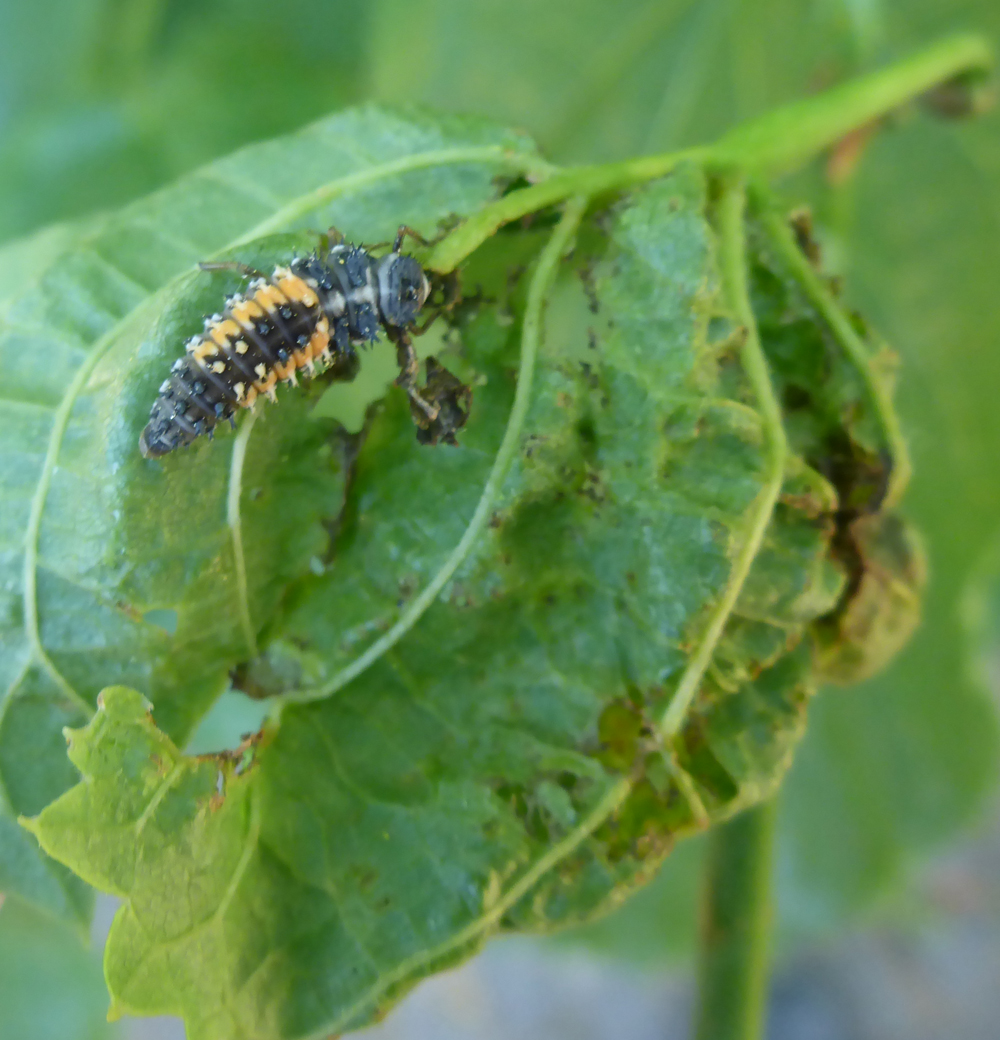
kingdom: Animalia
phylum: Arthropoda
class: Insecta
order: Coleoptera
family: Coccinellidae
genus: Harmonia
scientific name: Harmonia axyridis
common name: Harlequin ladybird
